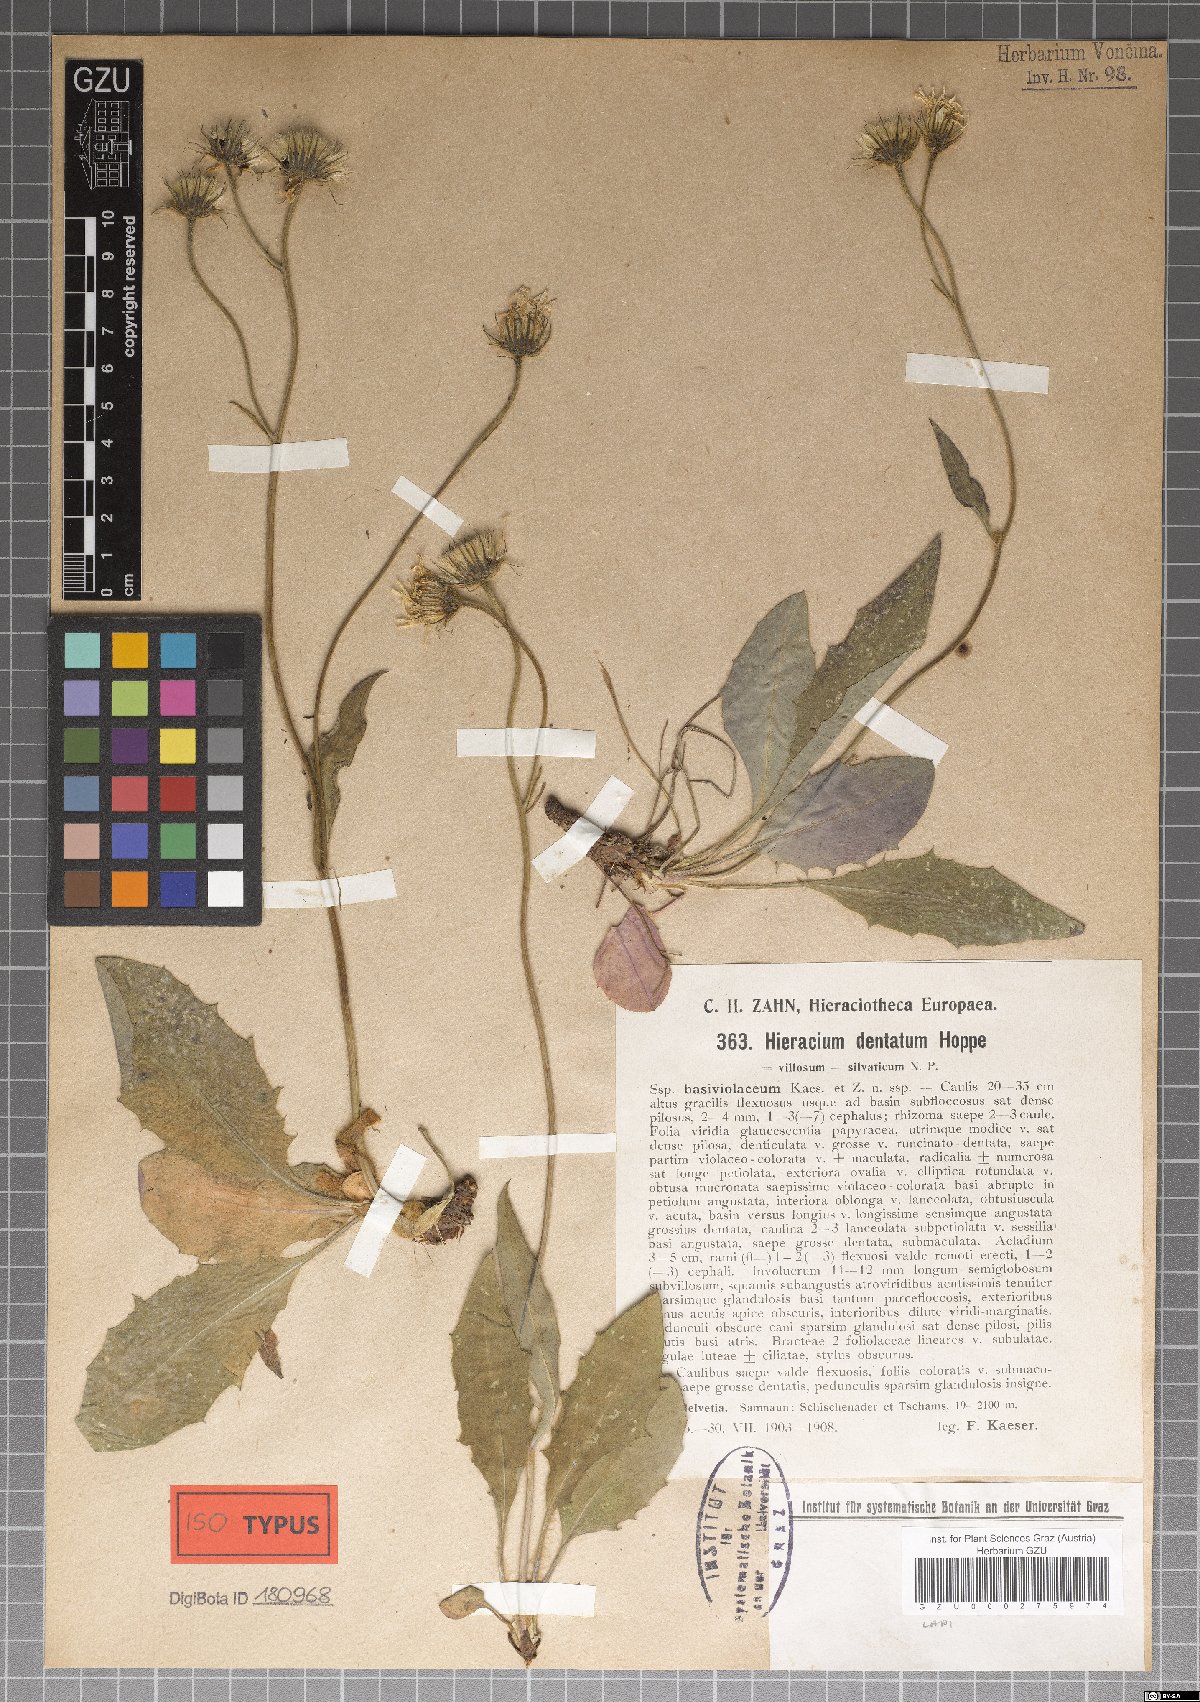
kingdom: Plantae
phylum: Tracheophyta
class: Magnoliopsida
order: Asterales
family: Asteraceae
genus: Hieracium
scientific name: Hieracium dentatum
